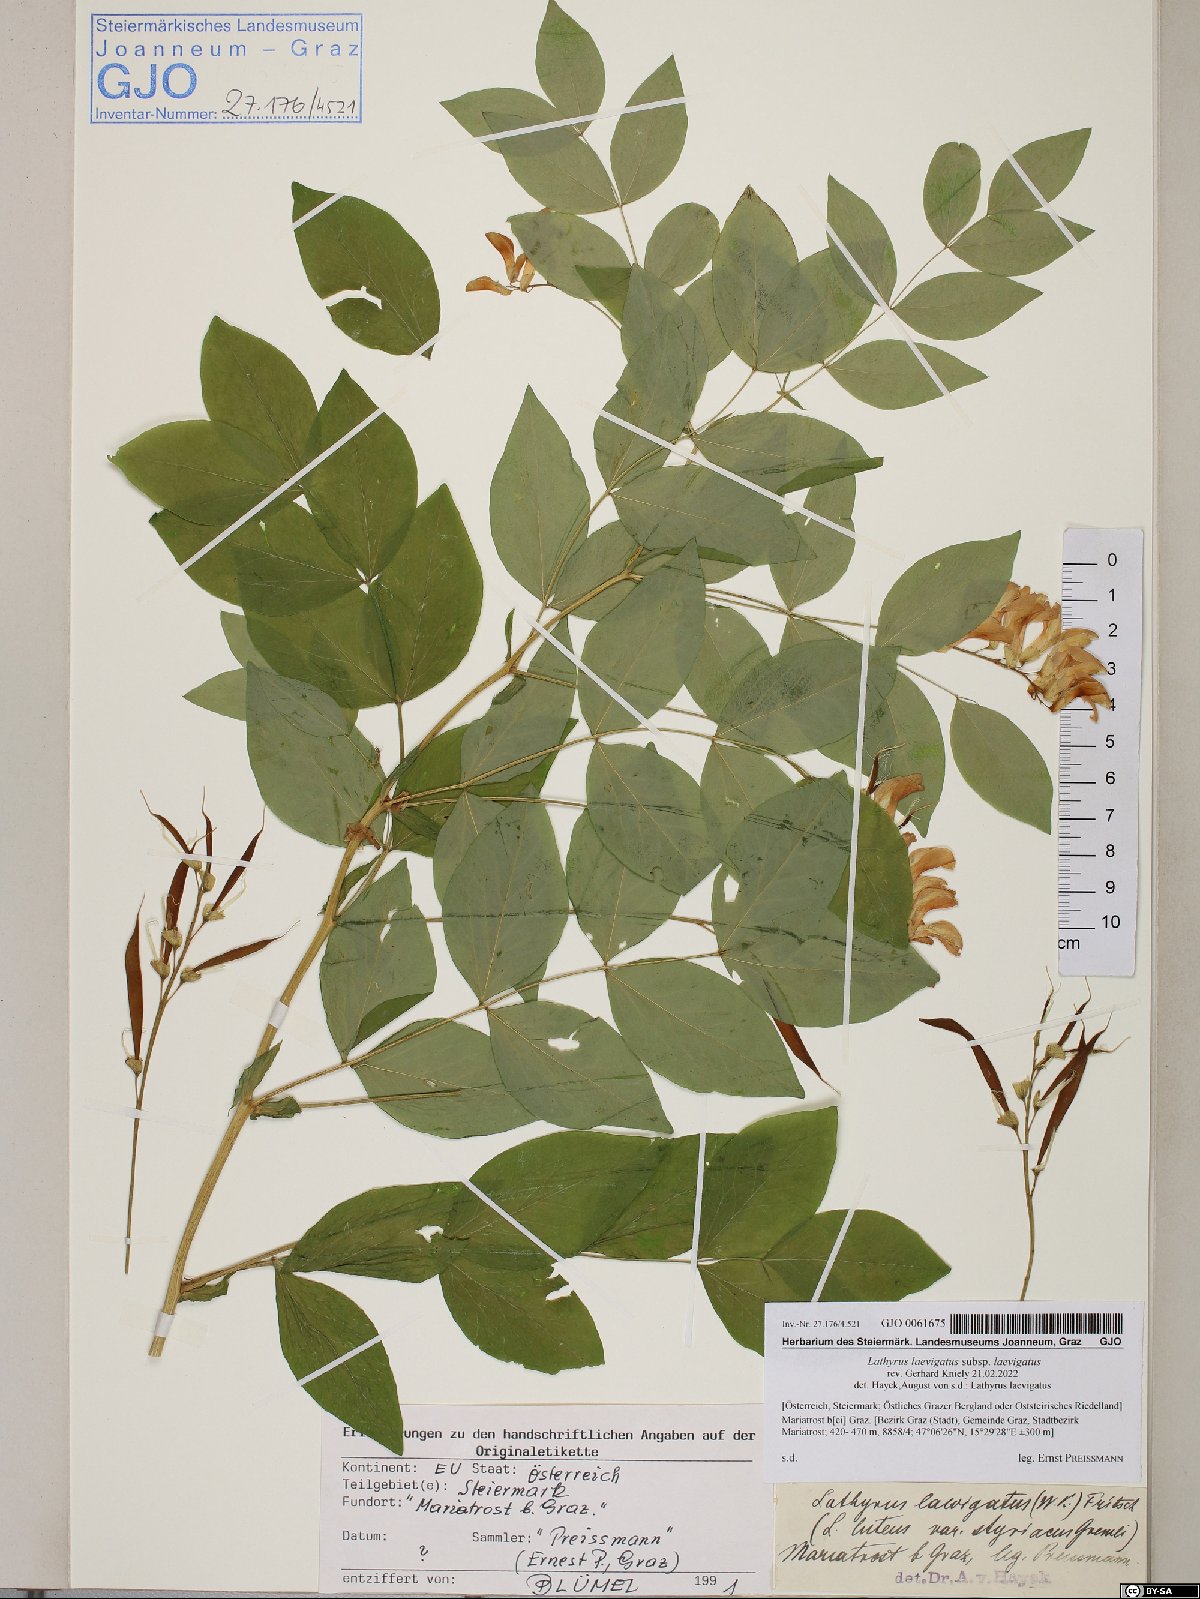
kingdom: Plantae
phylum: Tracheophyta
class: Magnoliopsida
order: Fabales
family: Fabaceae
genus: Lathyrus
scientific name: Lathyrus laevigatus
